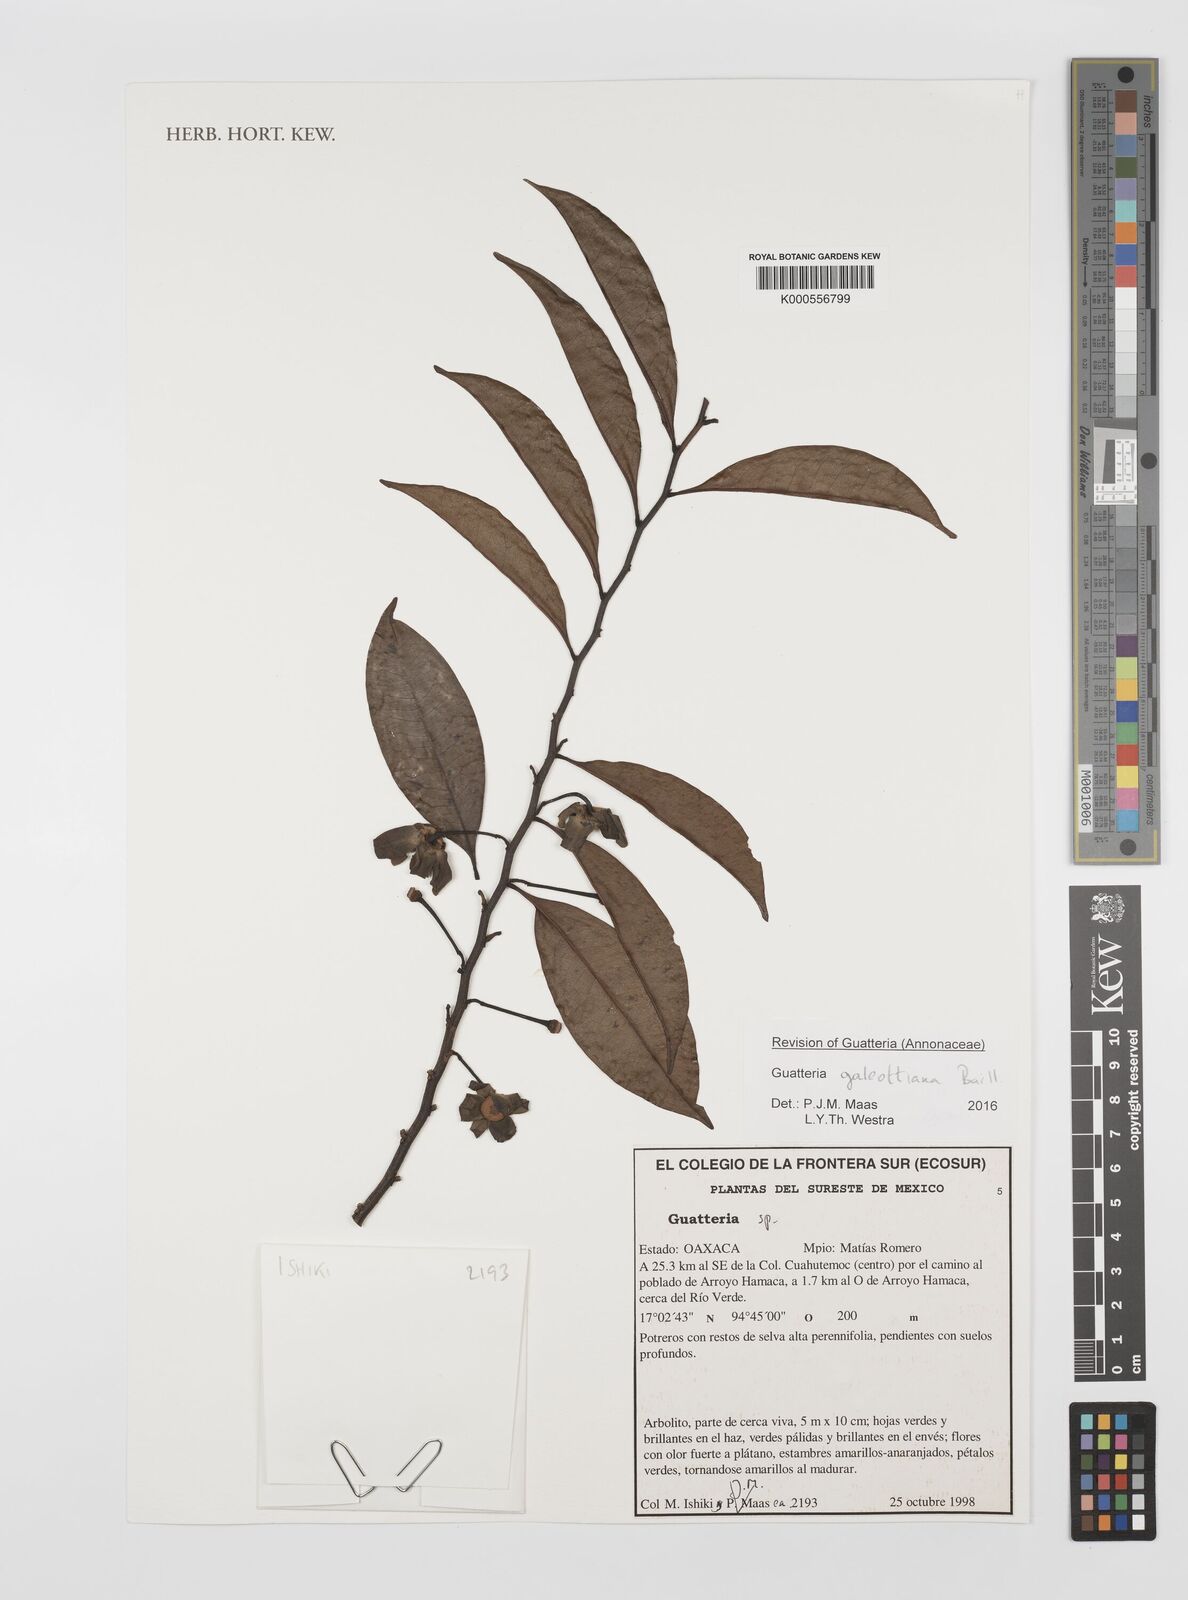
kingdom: Plantae
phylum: Tracheophyta
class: Magnoliopsida
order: Magnoliales
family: Annonaceae
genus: Guatteria
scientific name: Guatteria galeottiana
